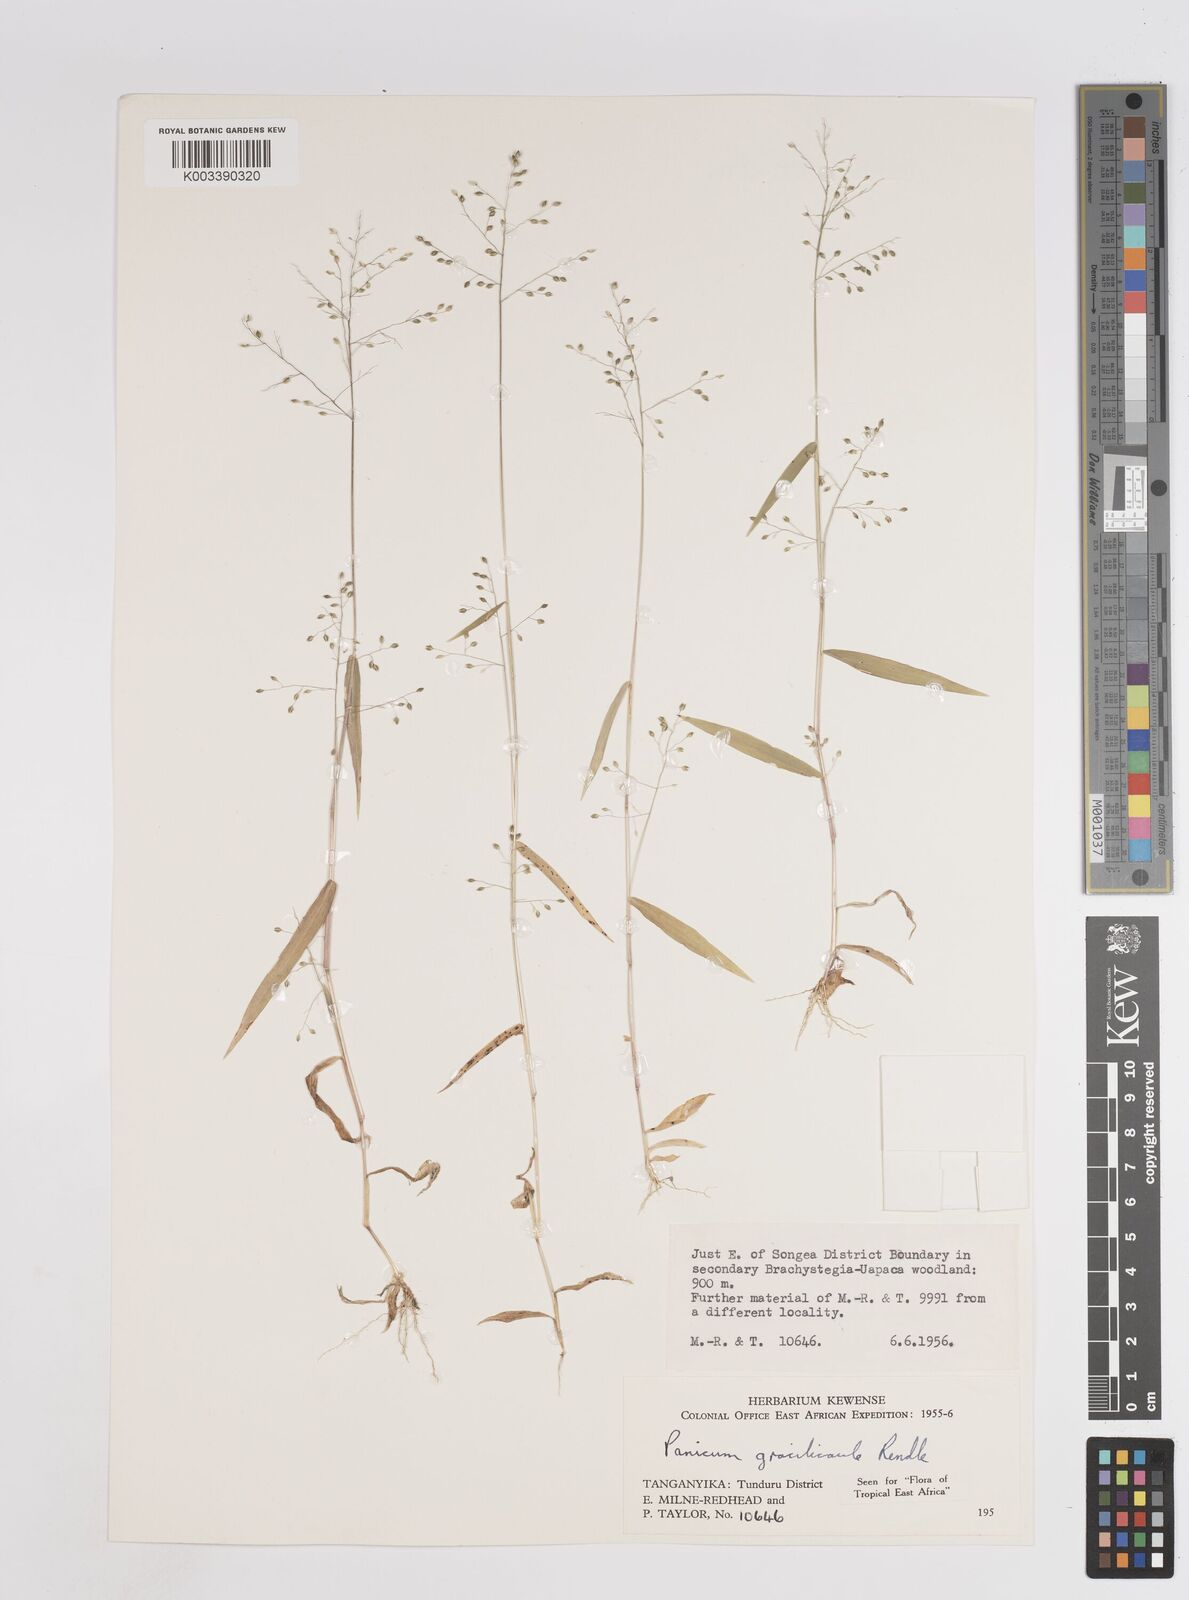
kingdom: Plantae
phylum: Tracheophyta
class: Liliopsida
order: Poales
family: Poaceae
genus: Trichanthecium
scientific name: Trichanthecium gracilicaule
